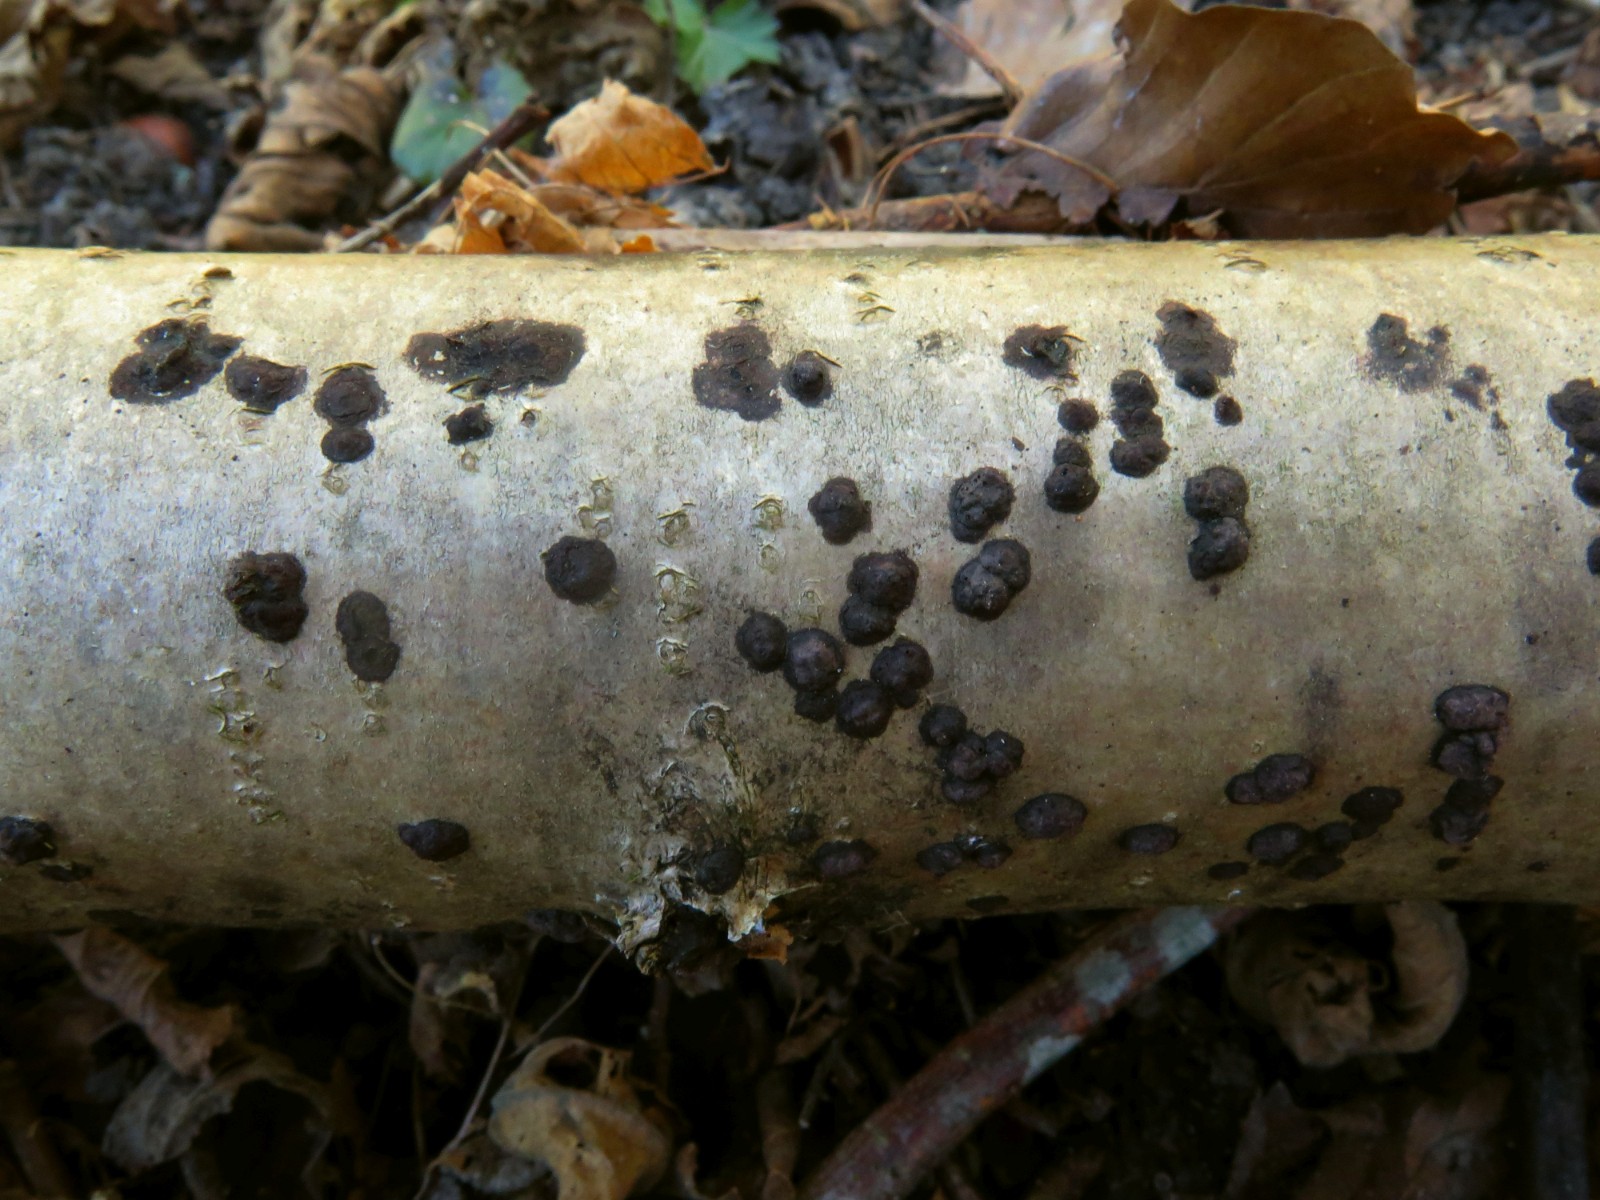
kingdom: Fungi
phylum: Ascomycota
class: Sordariomycetes
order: Xylariales
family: Hypoxylaceae
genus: Hypoxylon
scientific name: Hypoxylon fuscum
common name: kegleformet kulbær
